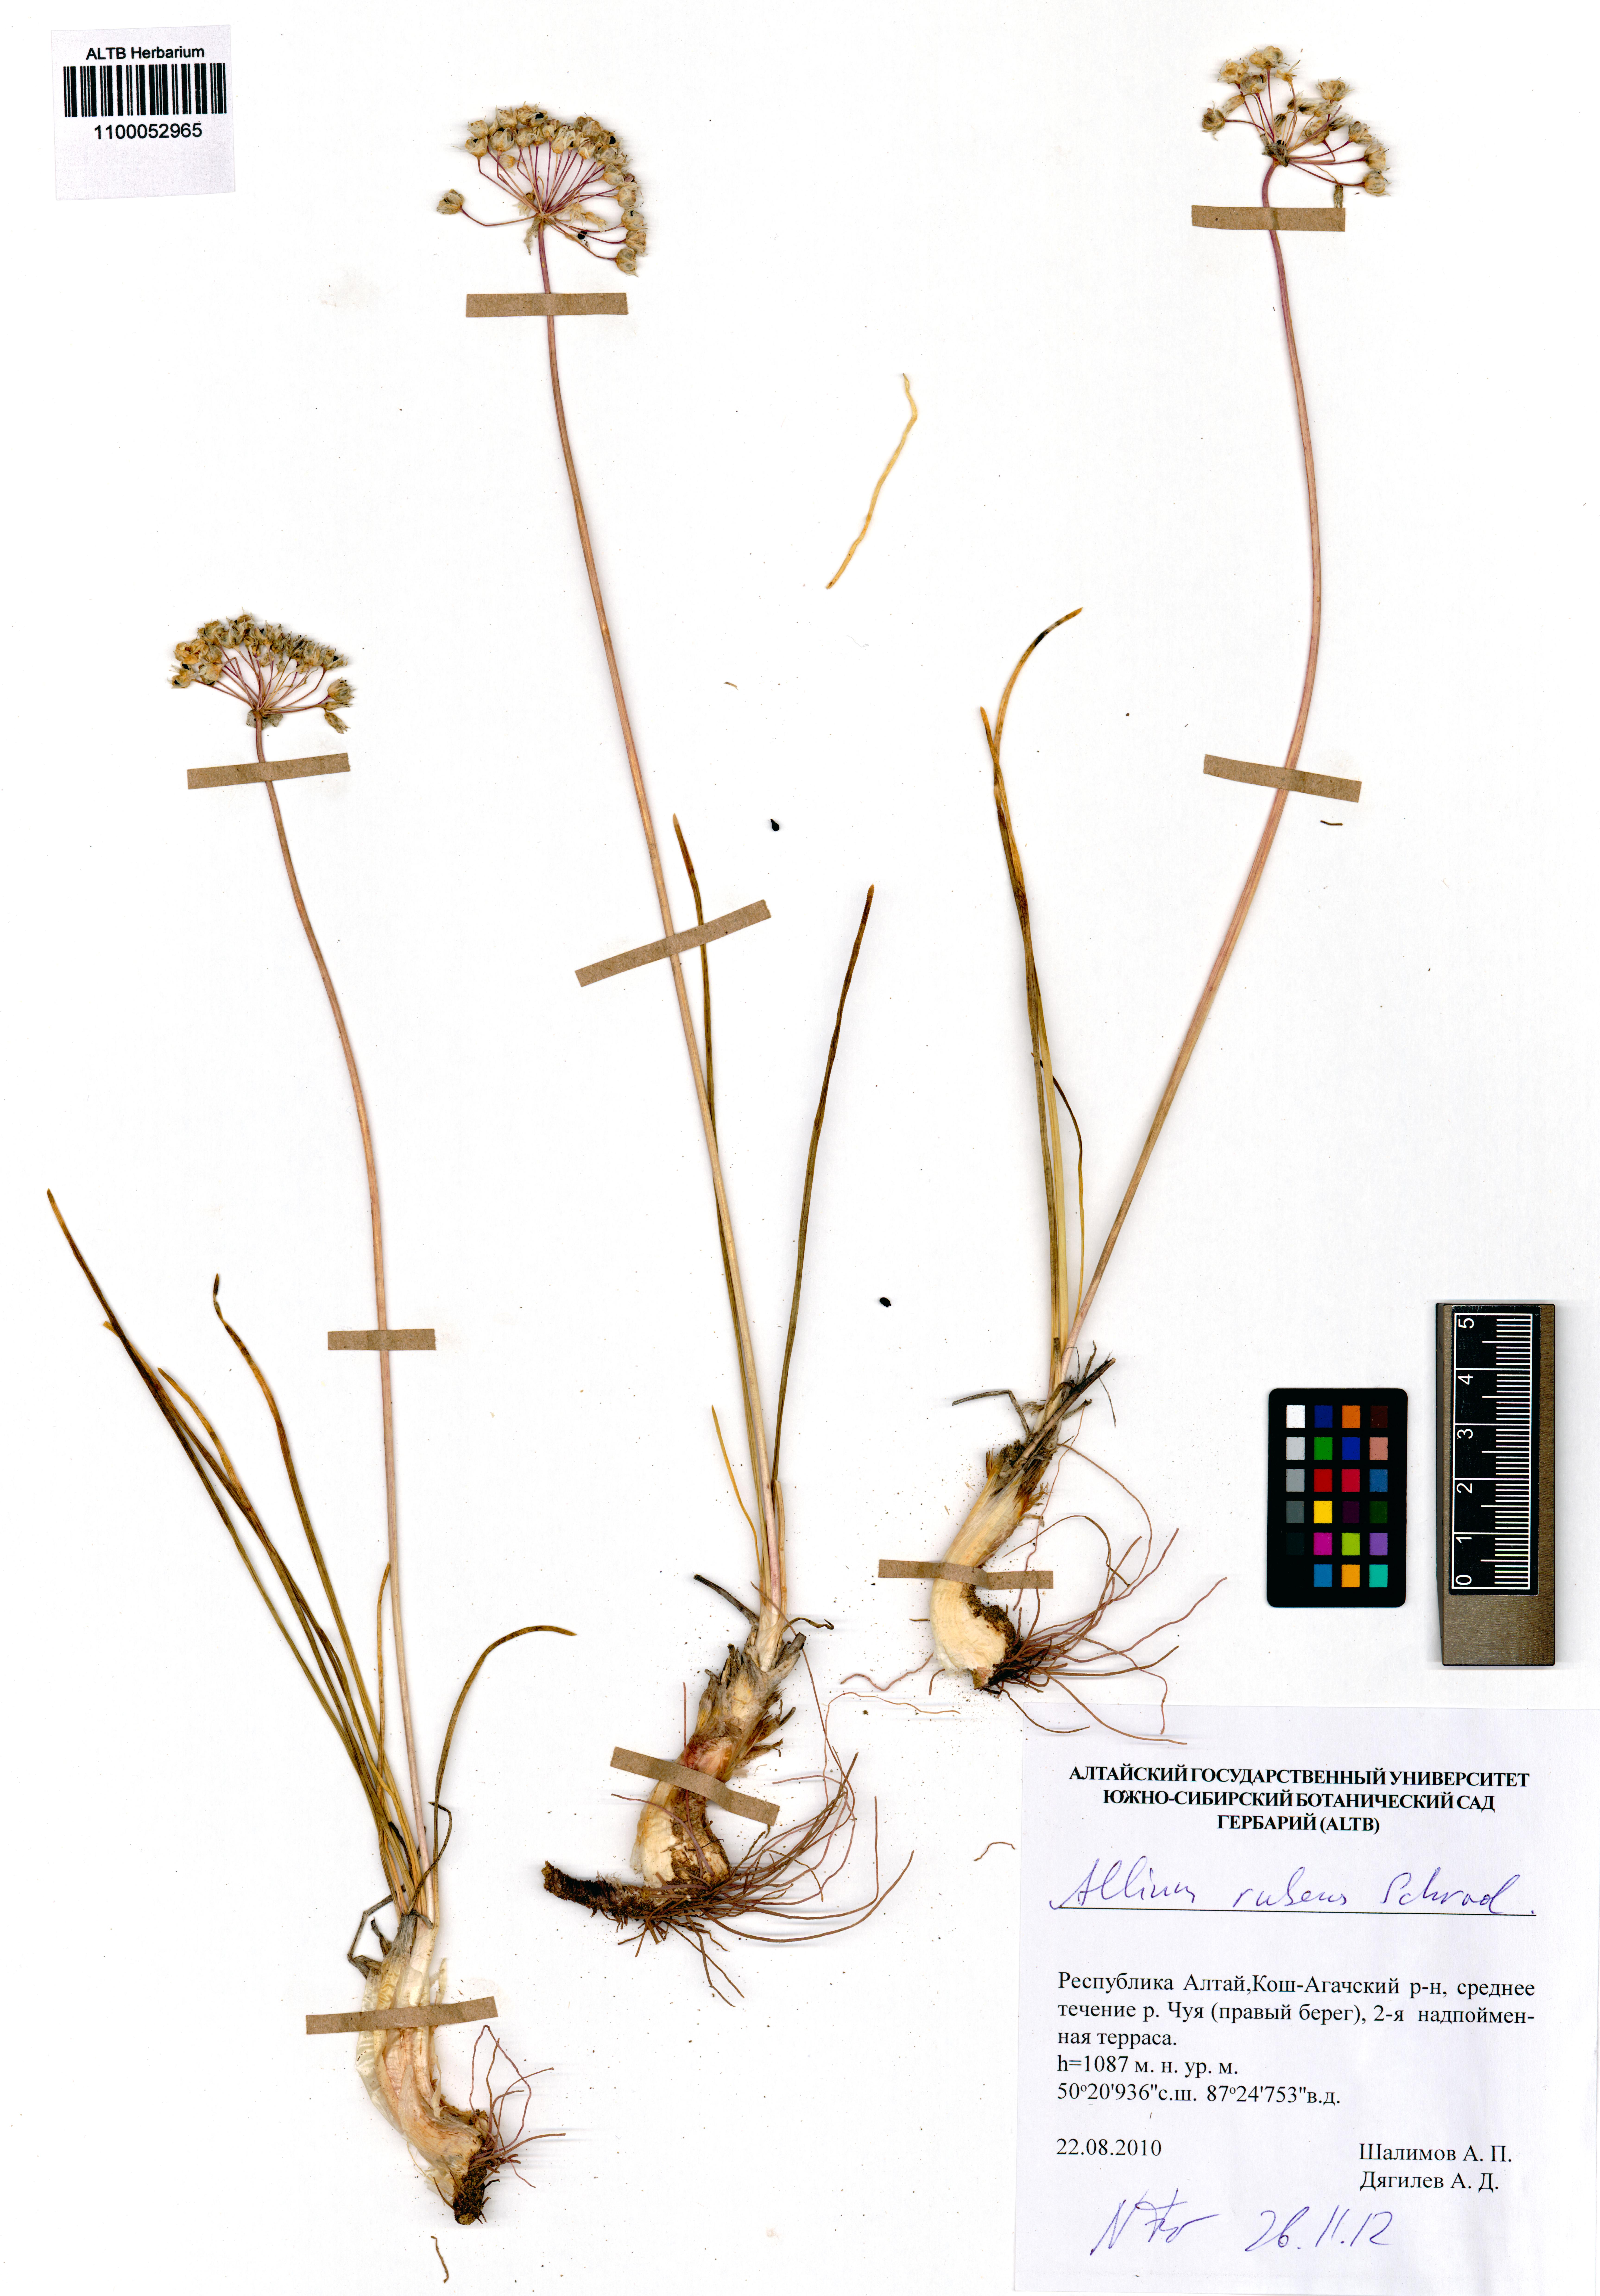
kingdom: Plantae
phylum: Tracheophyta
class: Liliopsida
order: Asparagales
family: Amaryllidaceae
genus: Allium
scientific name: Allium rubens
